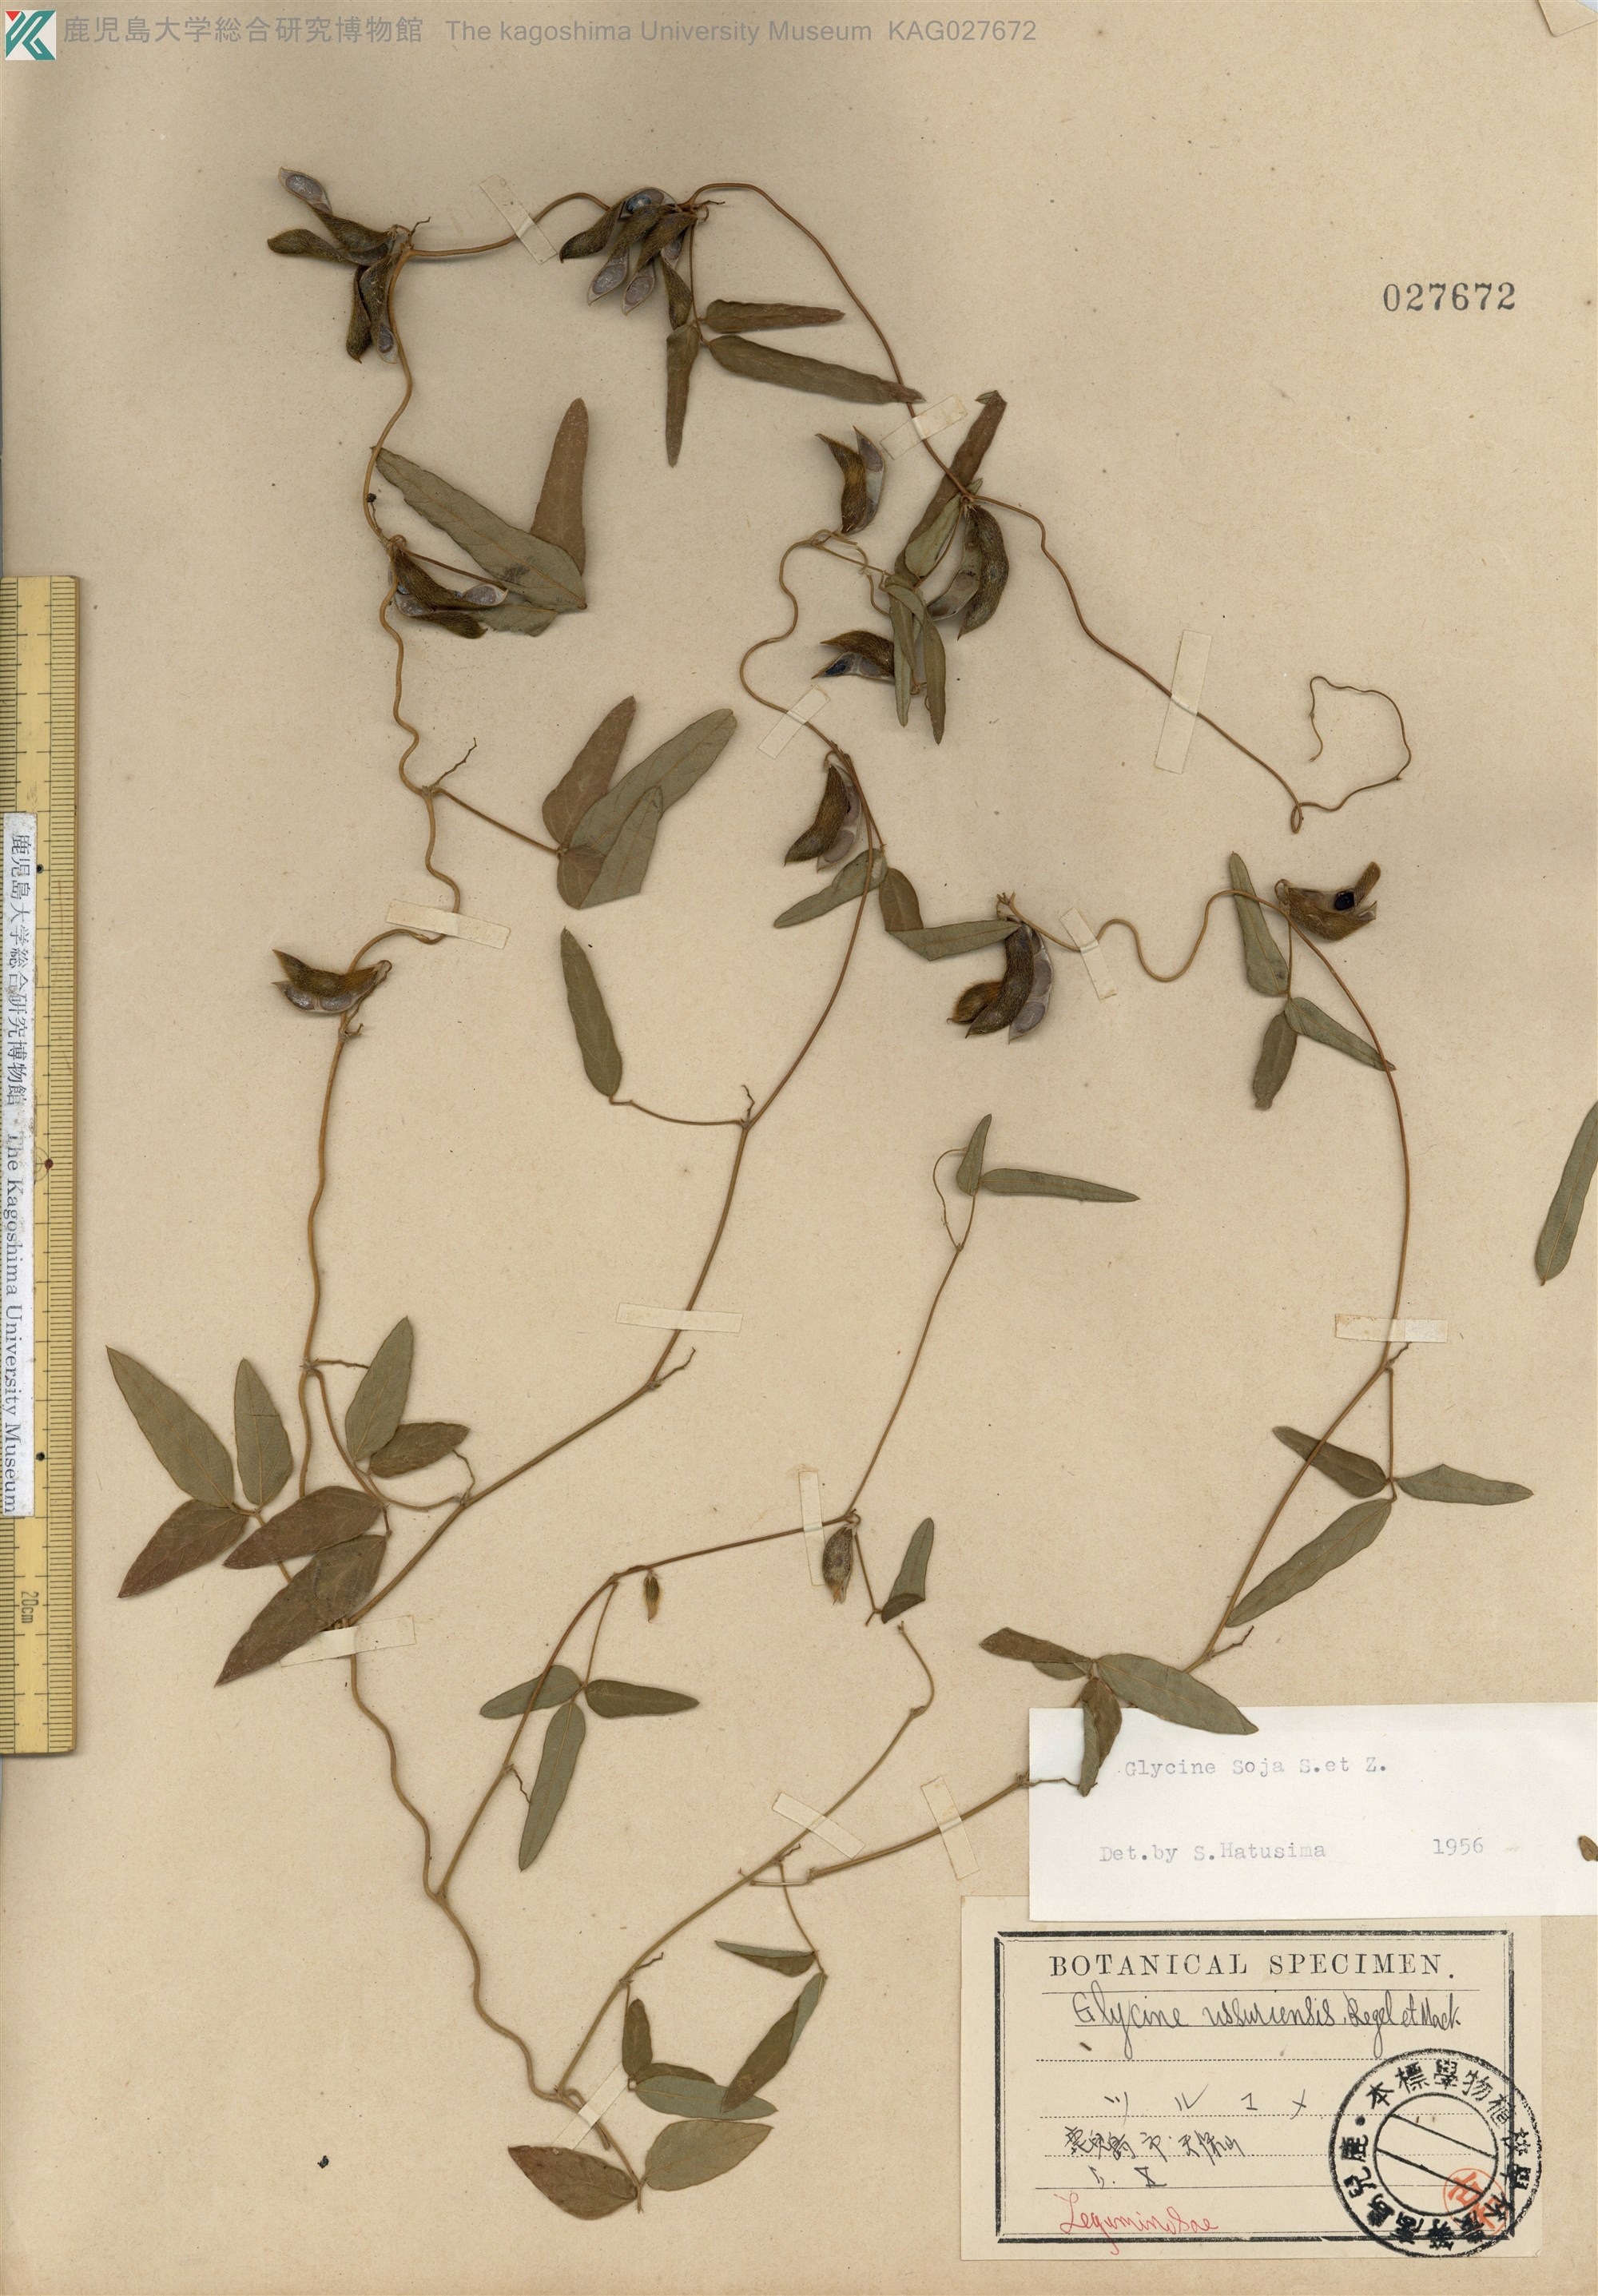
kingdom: Plantae
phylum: Tracheophyta
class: Magnoliopsida
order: Fabales
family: Fabaceae
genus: Glycine
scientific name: Glycine max
